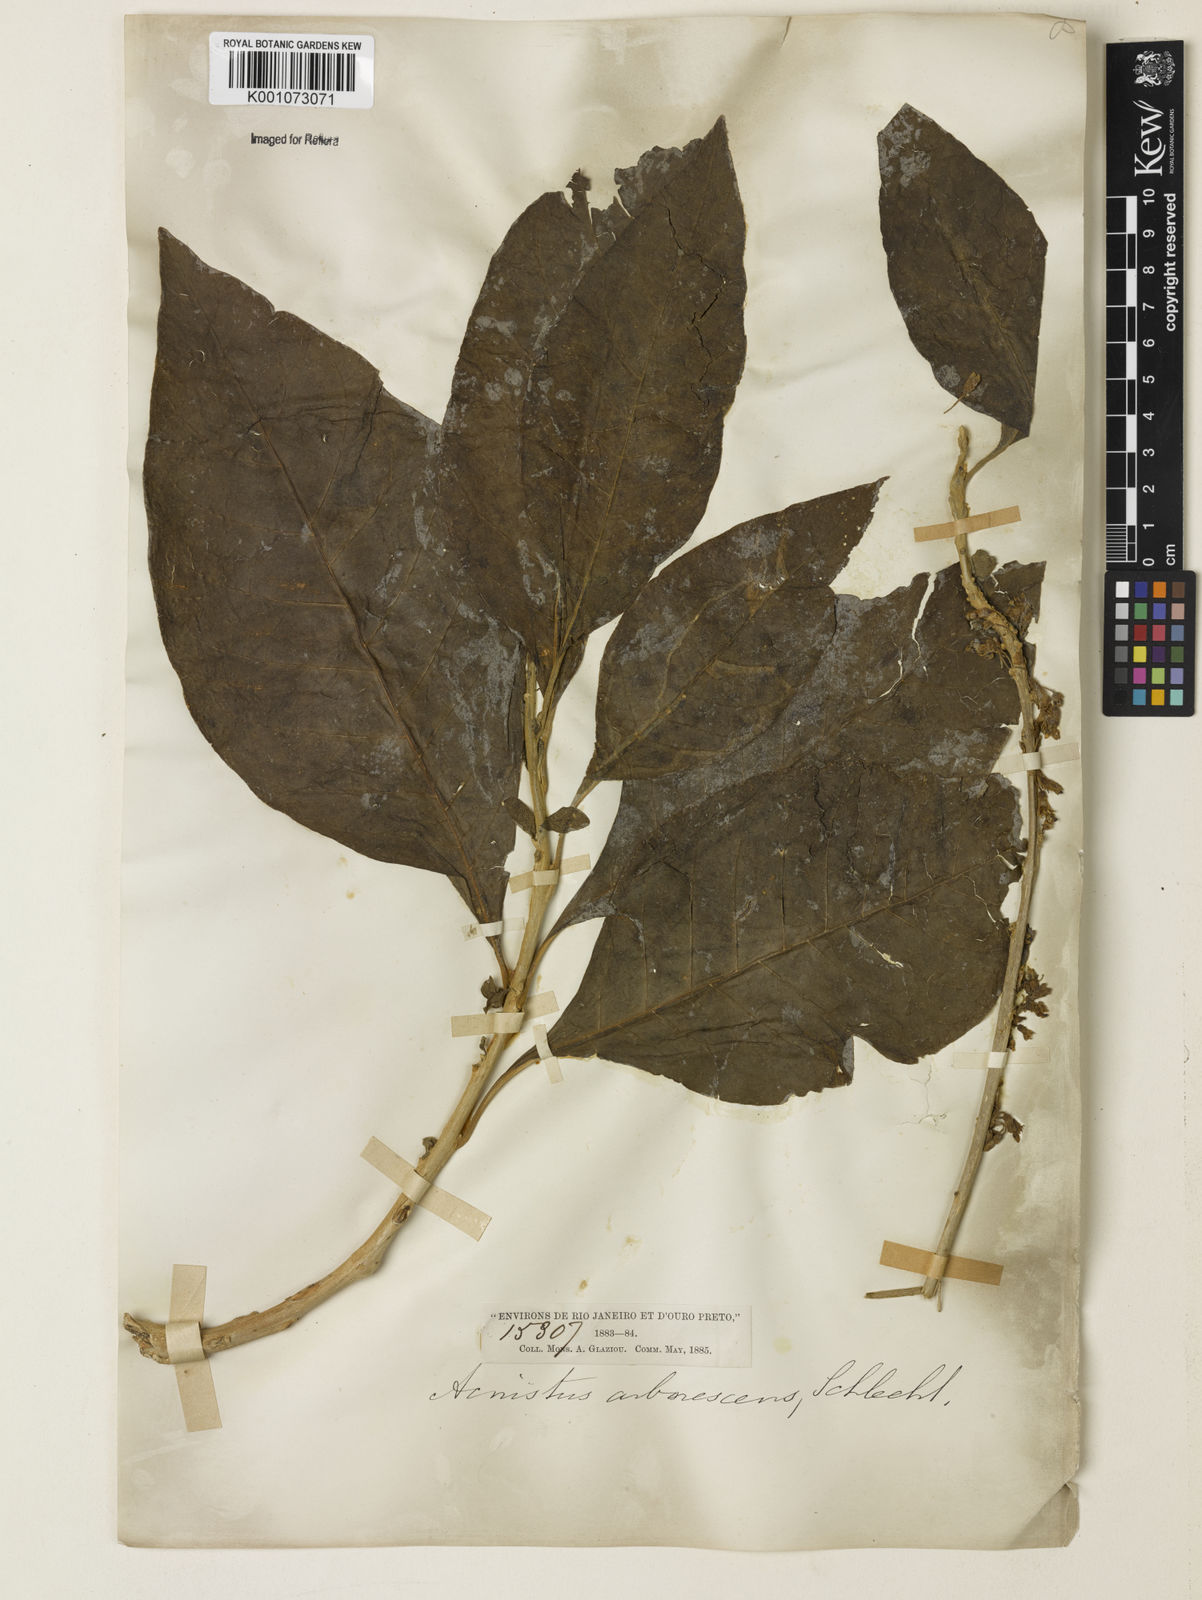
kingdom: Plantae
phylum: Tracheophyta
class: Magnoliopsida
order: Solanales
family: Solanaceae
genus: Iochroma
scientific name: Iochroma arborescens
